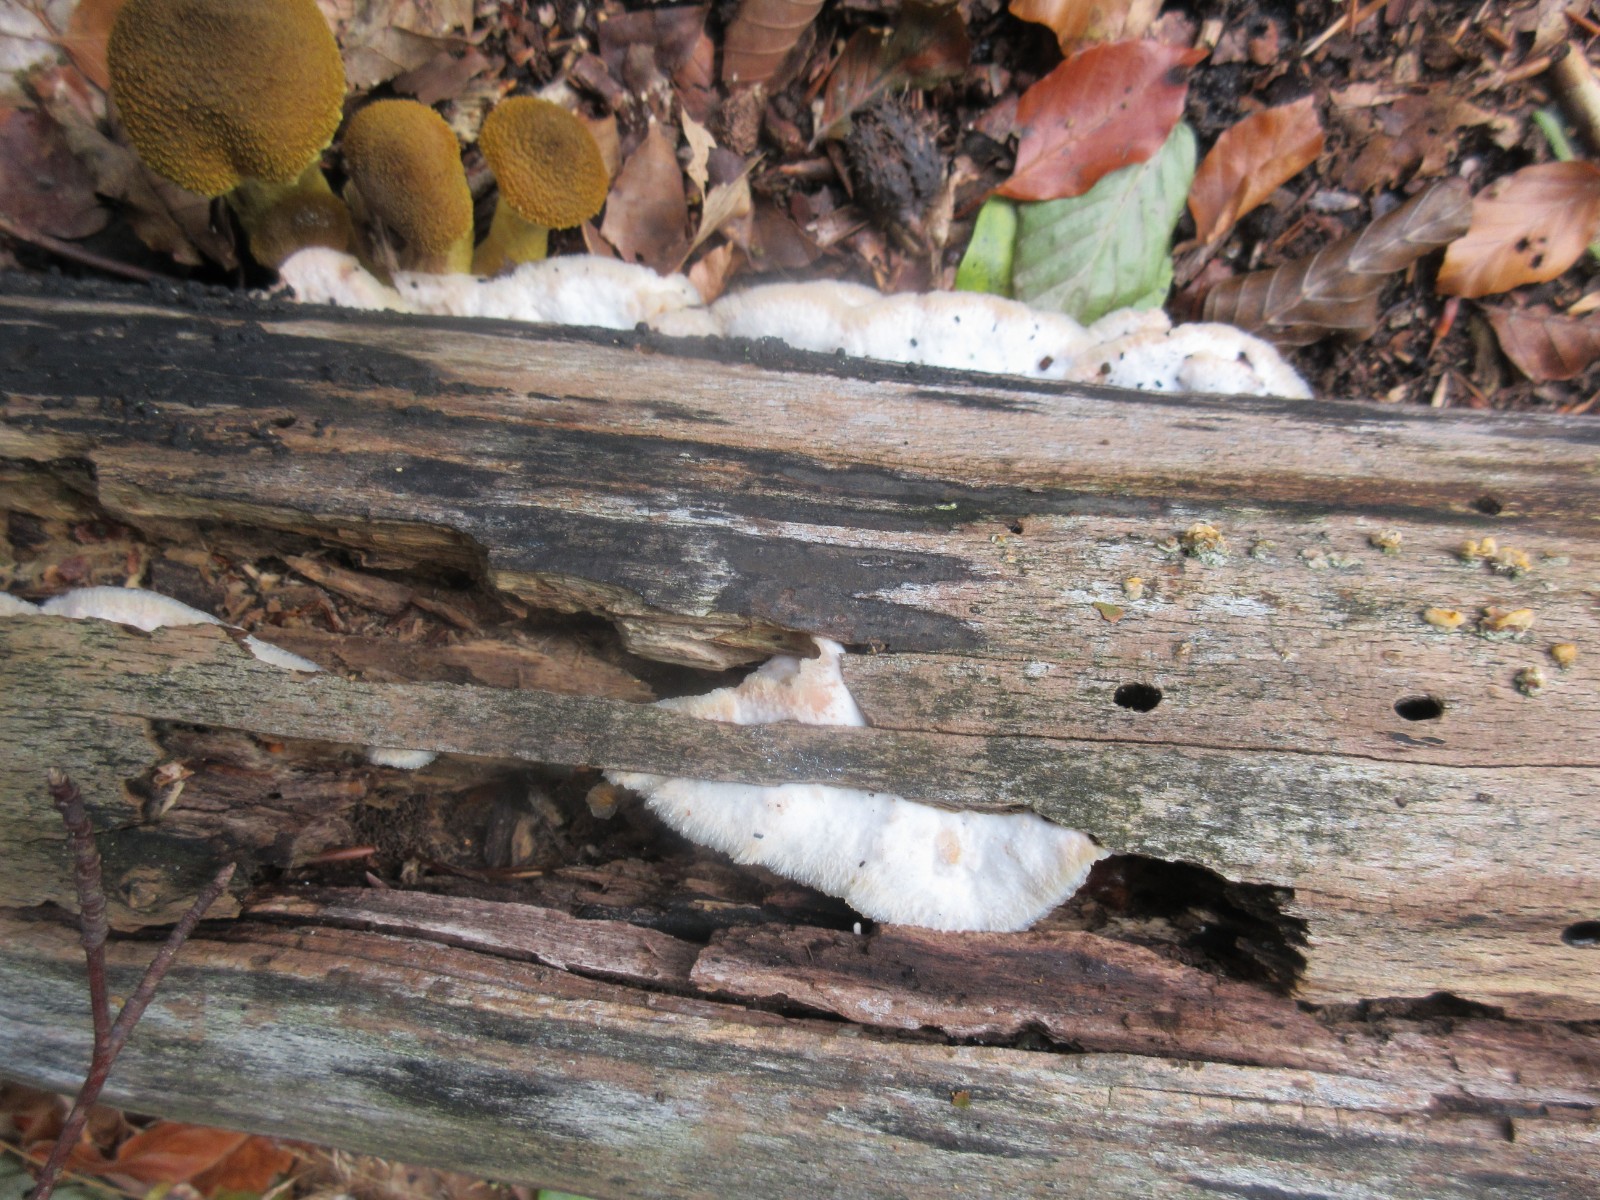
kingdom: Fungi
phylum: Basidiomycota
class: Agaricomycetes
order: Polyporales
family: Meruliaceae
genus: Phlebia
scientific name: Phlebia tremellosa
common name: bævrende åresvamp
